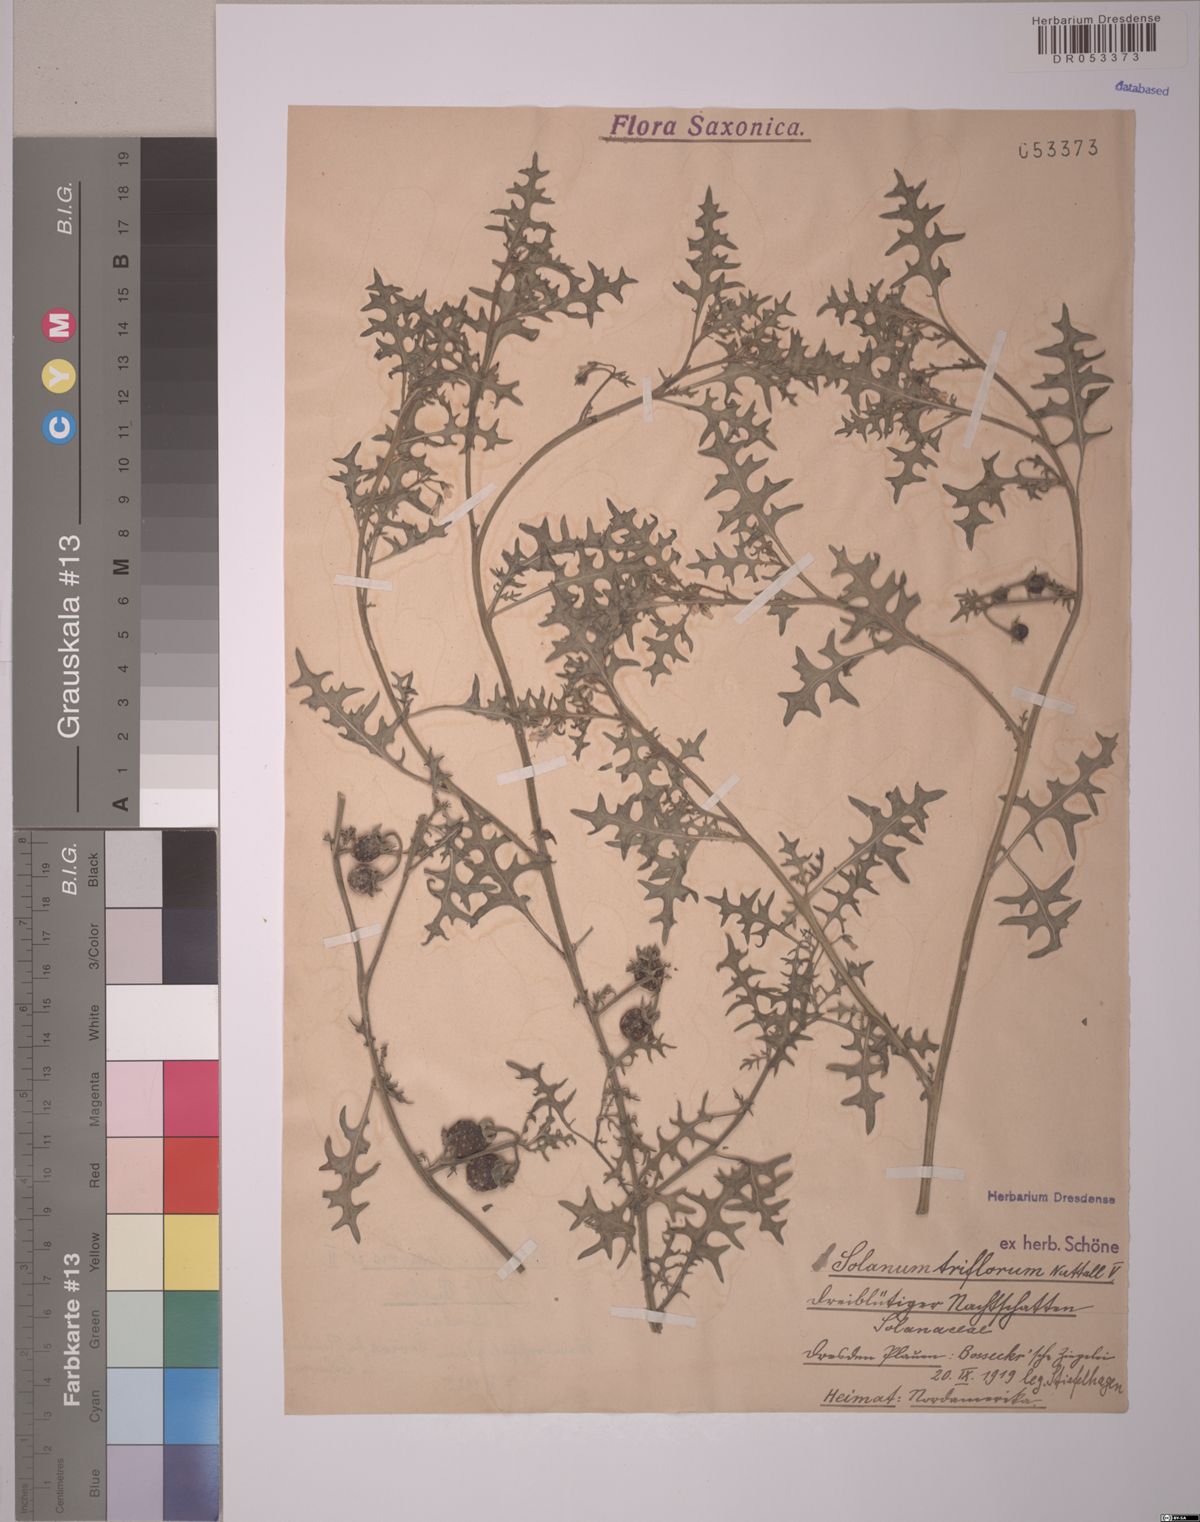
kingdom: Plantae
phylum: Tracheophyta
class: Magnoliopsida
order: Solanales
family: Solanaceae
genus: Solanum
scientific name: Solanum triflorum
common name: Small nightshade
